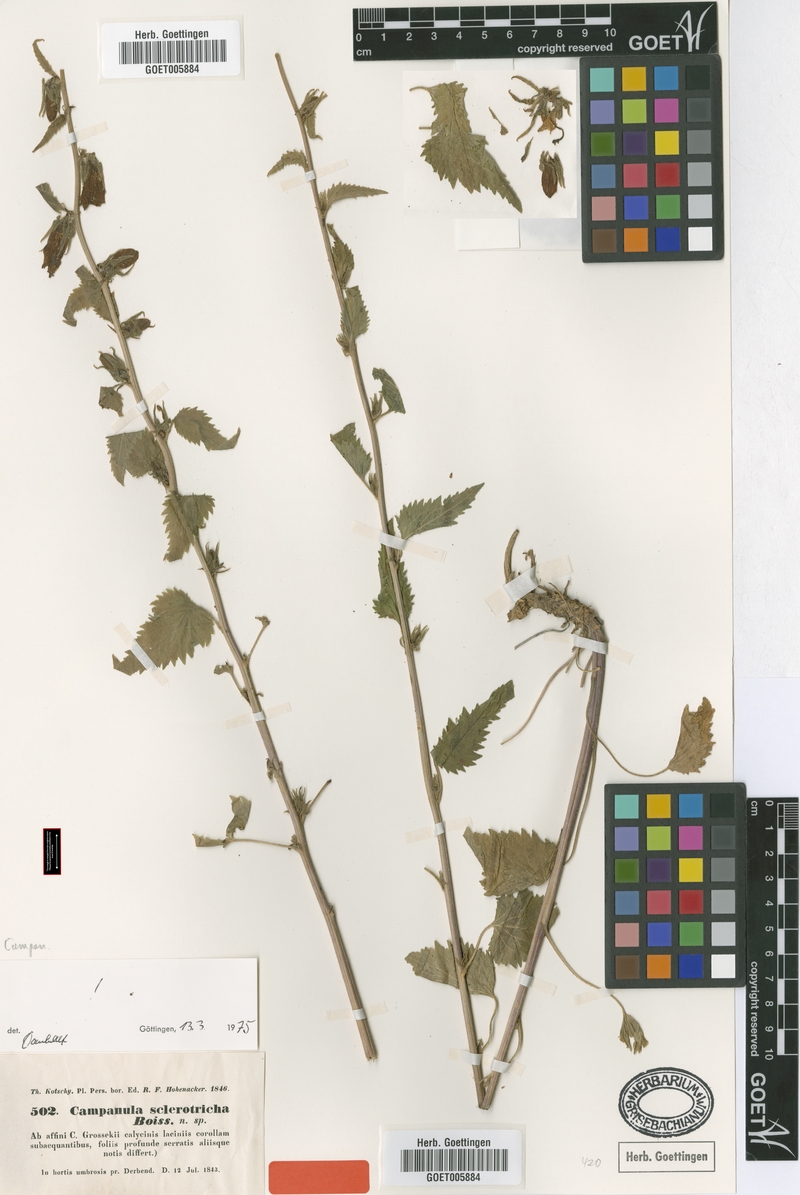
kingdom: Plantae
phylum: Tracheophyta
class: Magnoliopsida
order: Asterales
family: Campanulaceae
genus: Campanula
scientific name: Campanula sclerotricha
